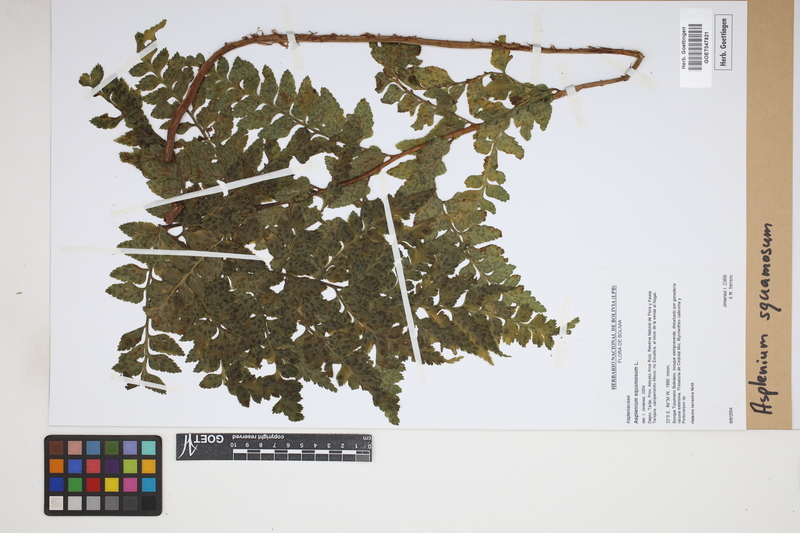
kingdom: Plantae
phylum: Tracheophyta
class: Polypodiopsida
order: Polypodiales
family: Aspleniaceae
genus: Asplenium
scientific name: Asplenium squamosum
